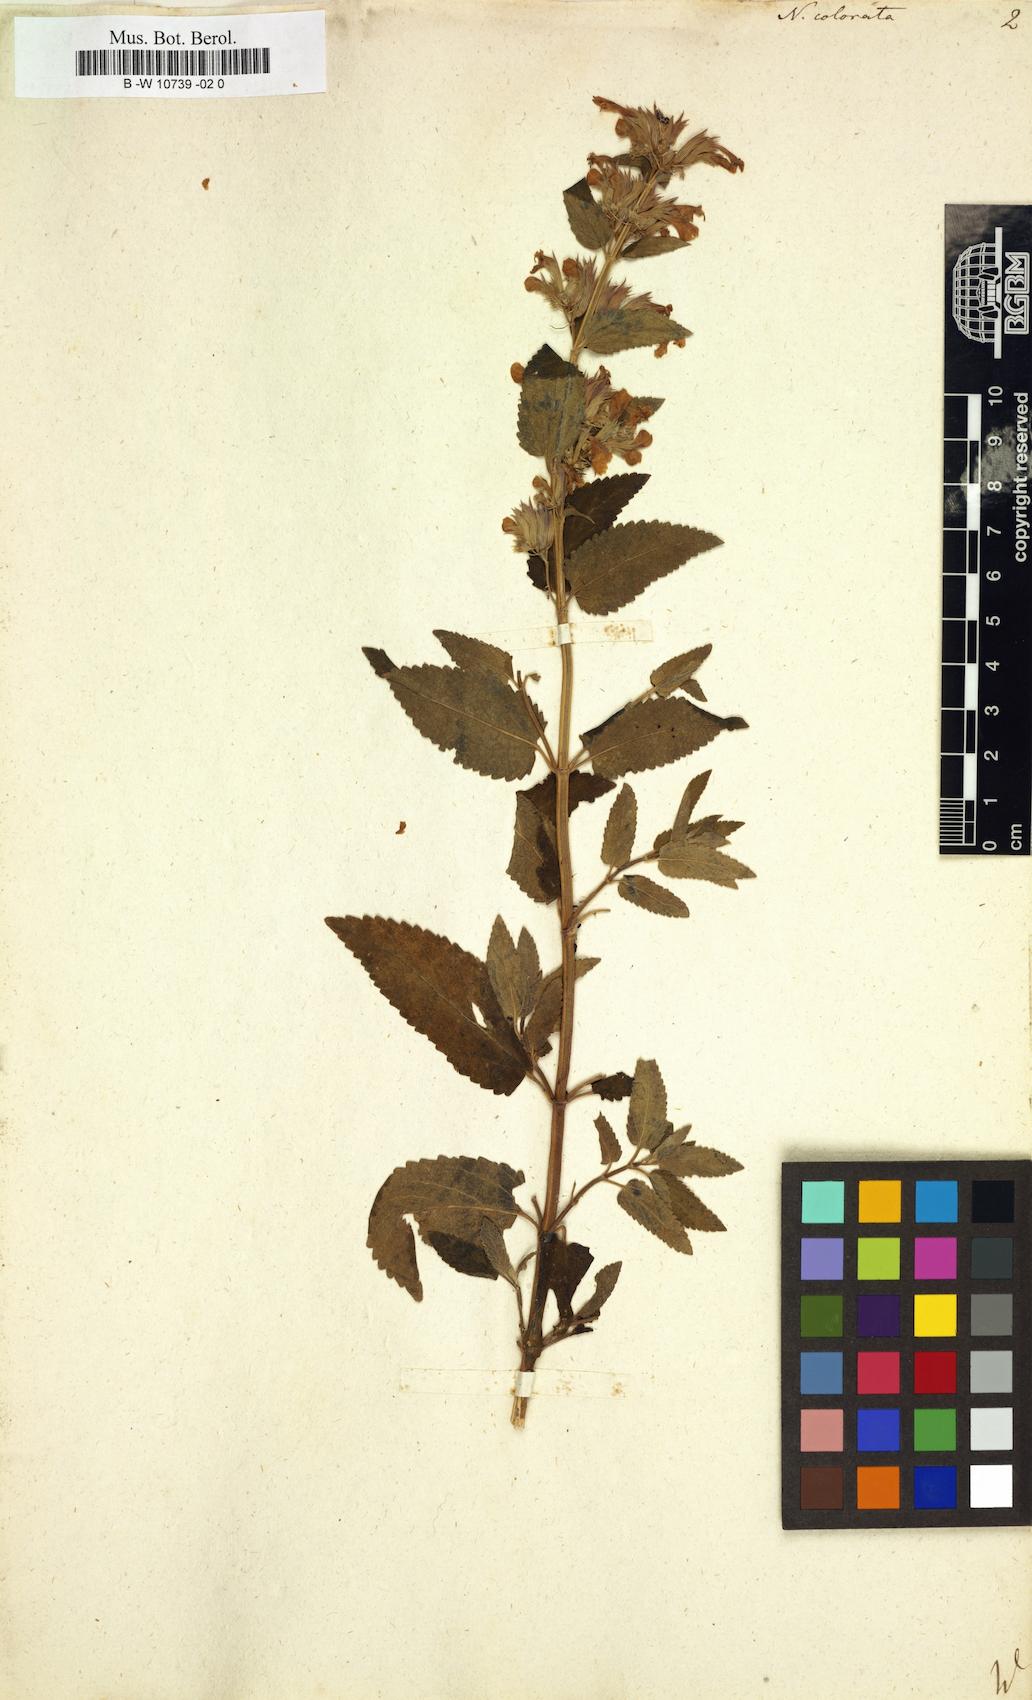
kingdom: Plantae
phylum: Tracheophyta
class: Magnoliopsida
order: Lamiales
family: Lamiaceae
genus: Nepeta
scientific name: Nepeta grandiflora
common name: Caucasus catmint
